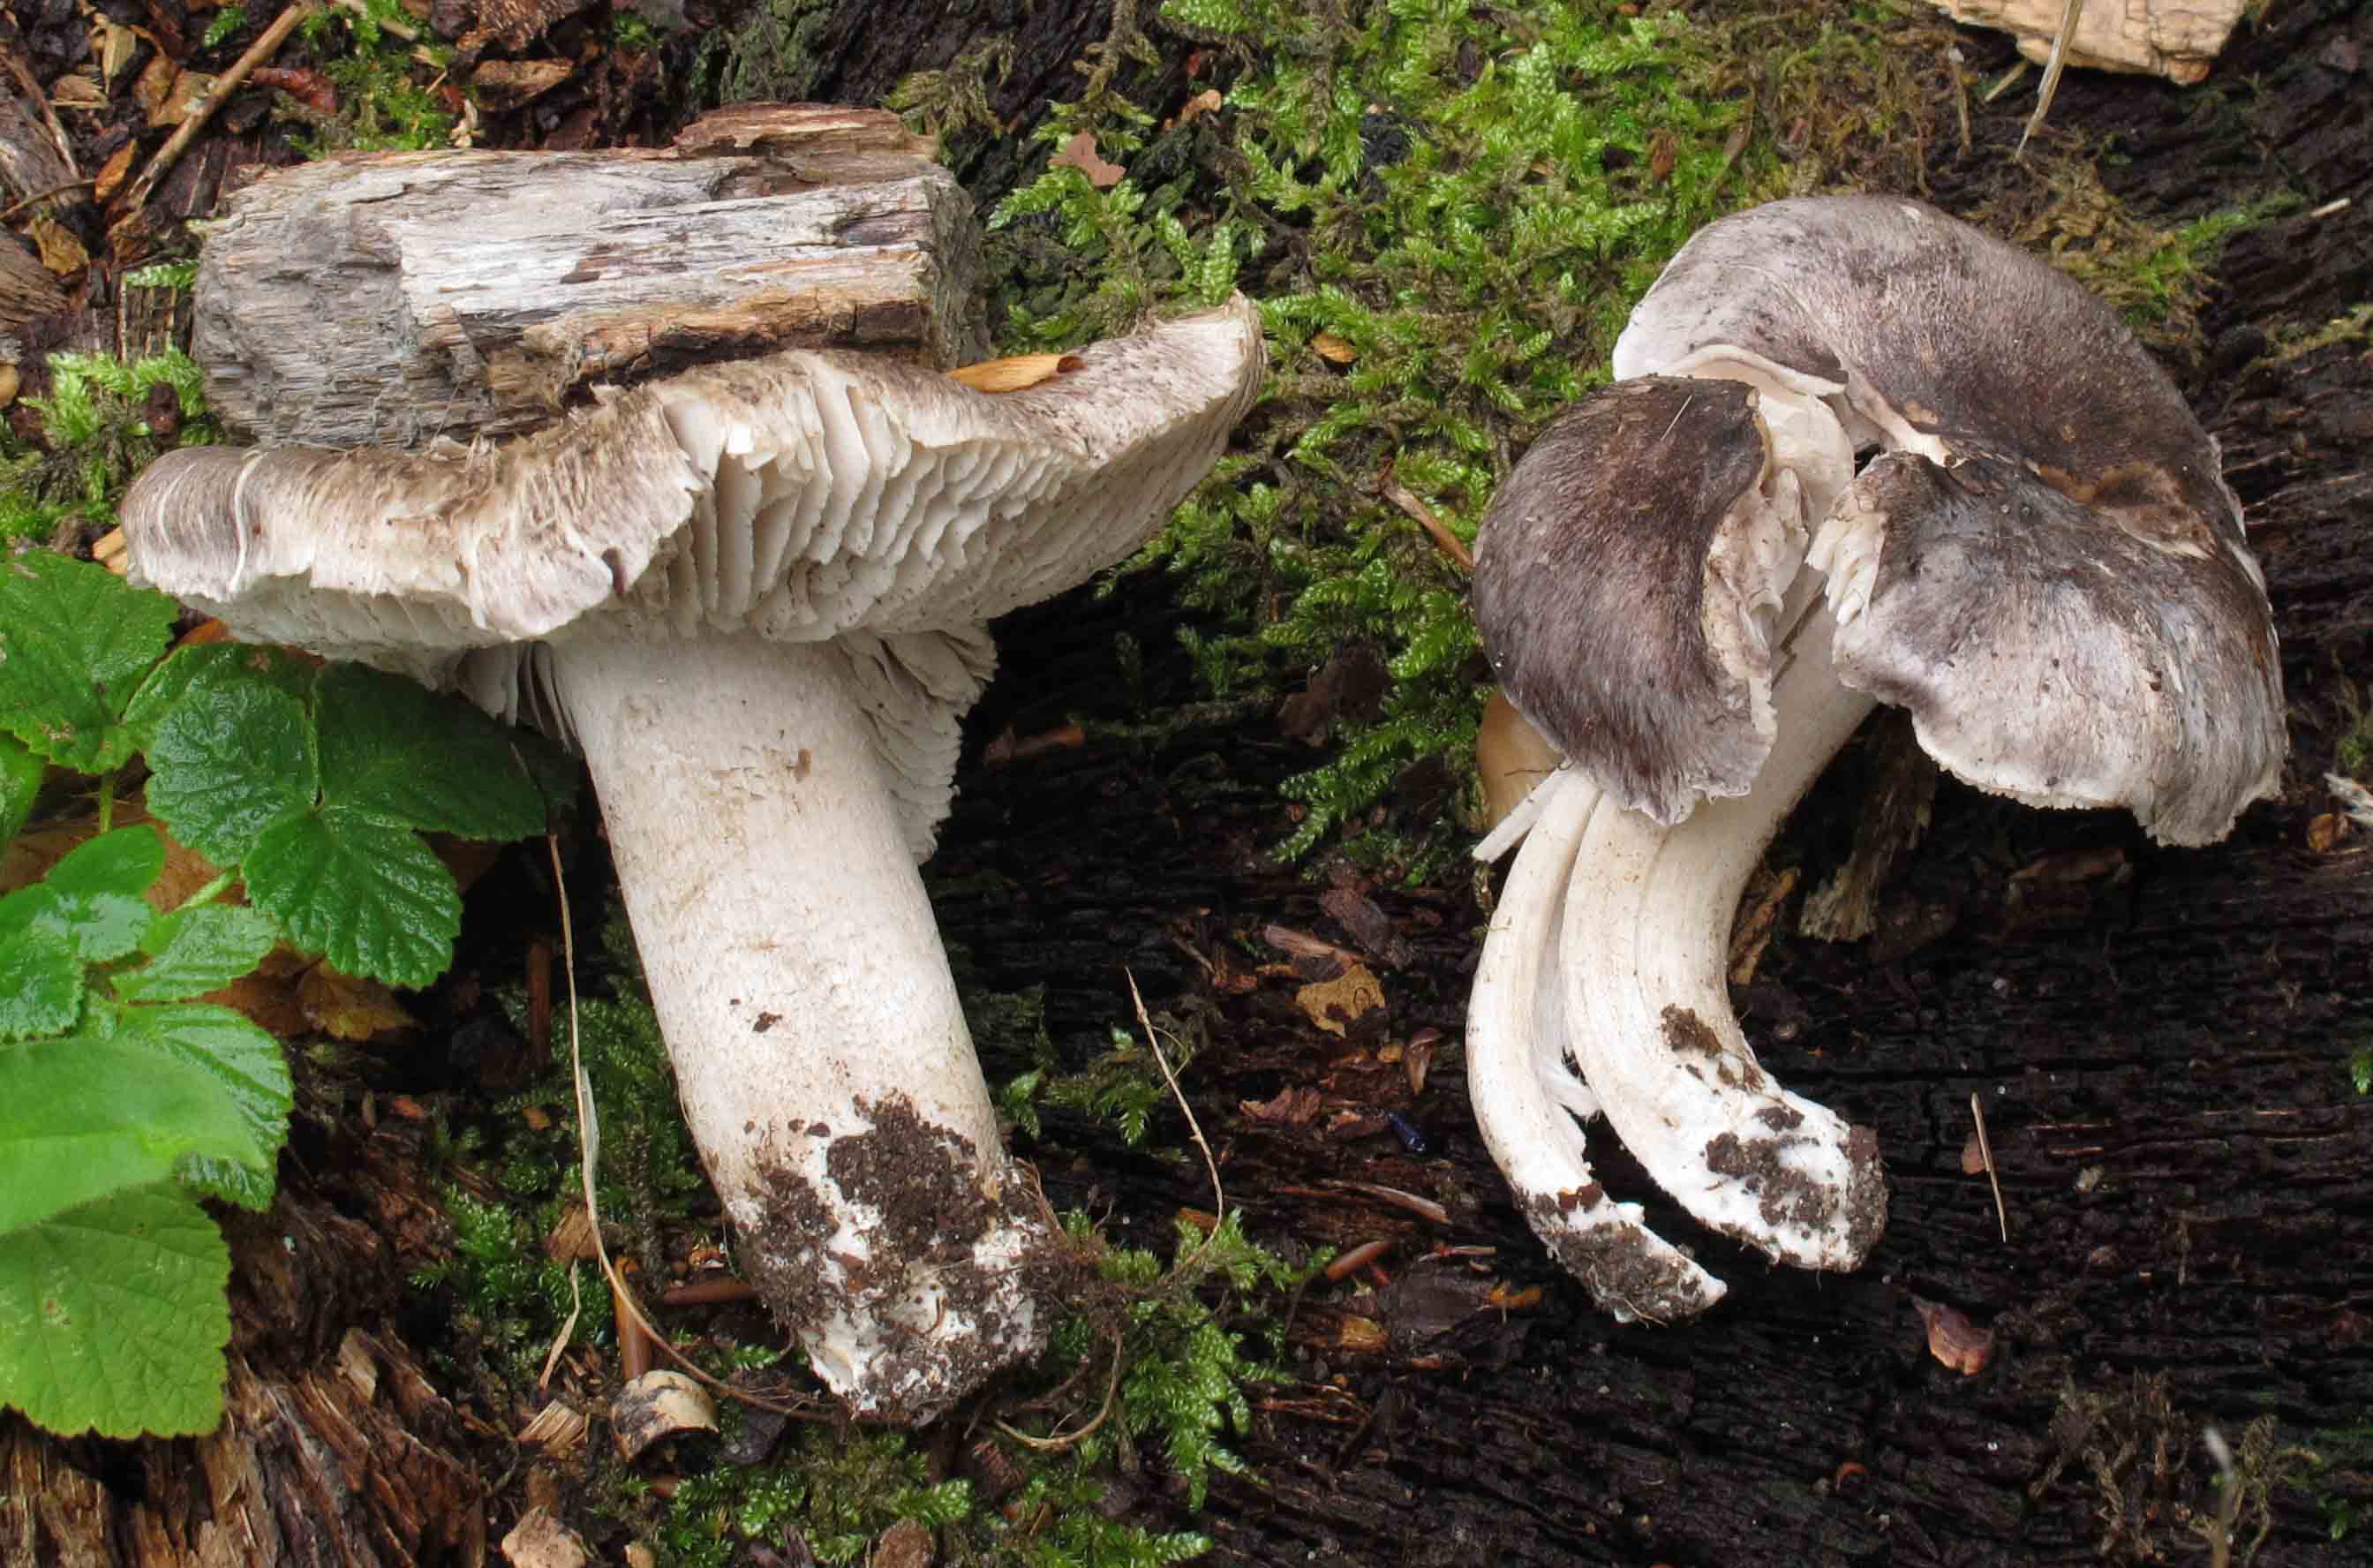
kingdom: Fungi
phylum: Basidiomycota
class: Agaricomycetes
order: Agaricales
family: Tricholomataceae
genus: Tricholoma
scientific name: Tricholoma sciodes
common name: stribet ridderhat
